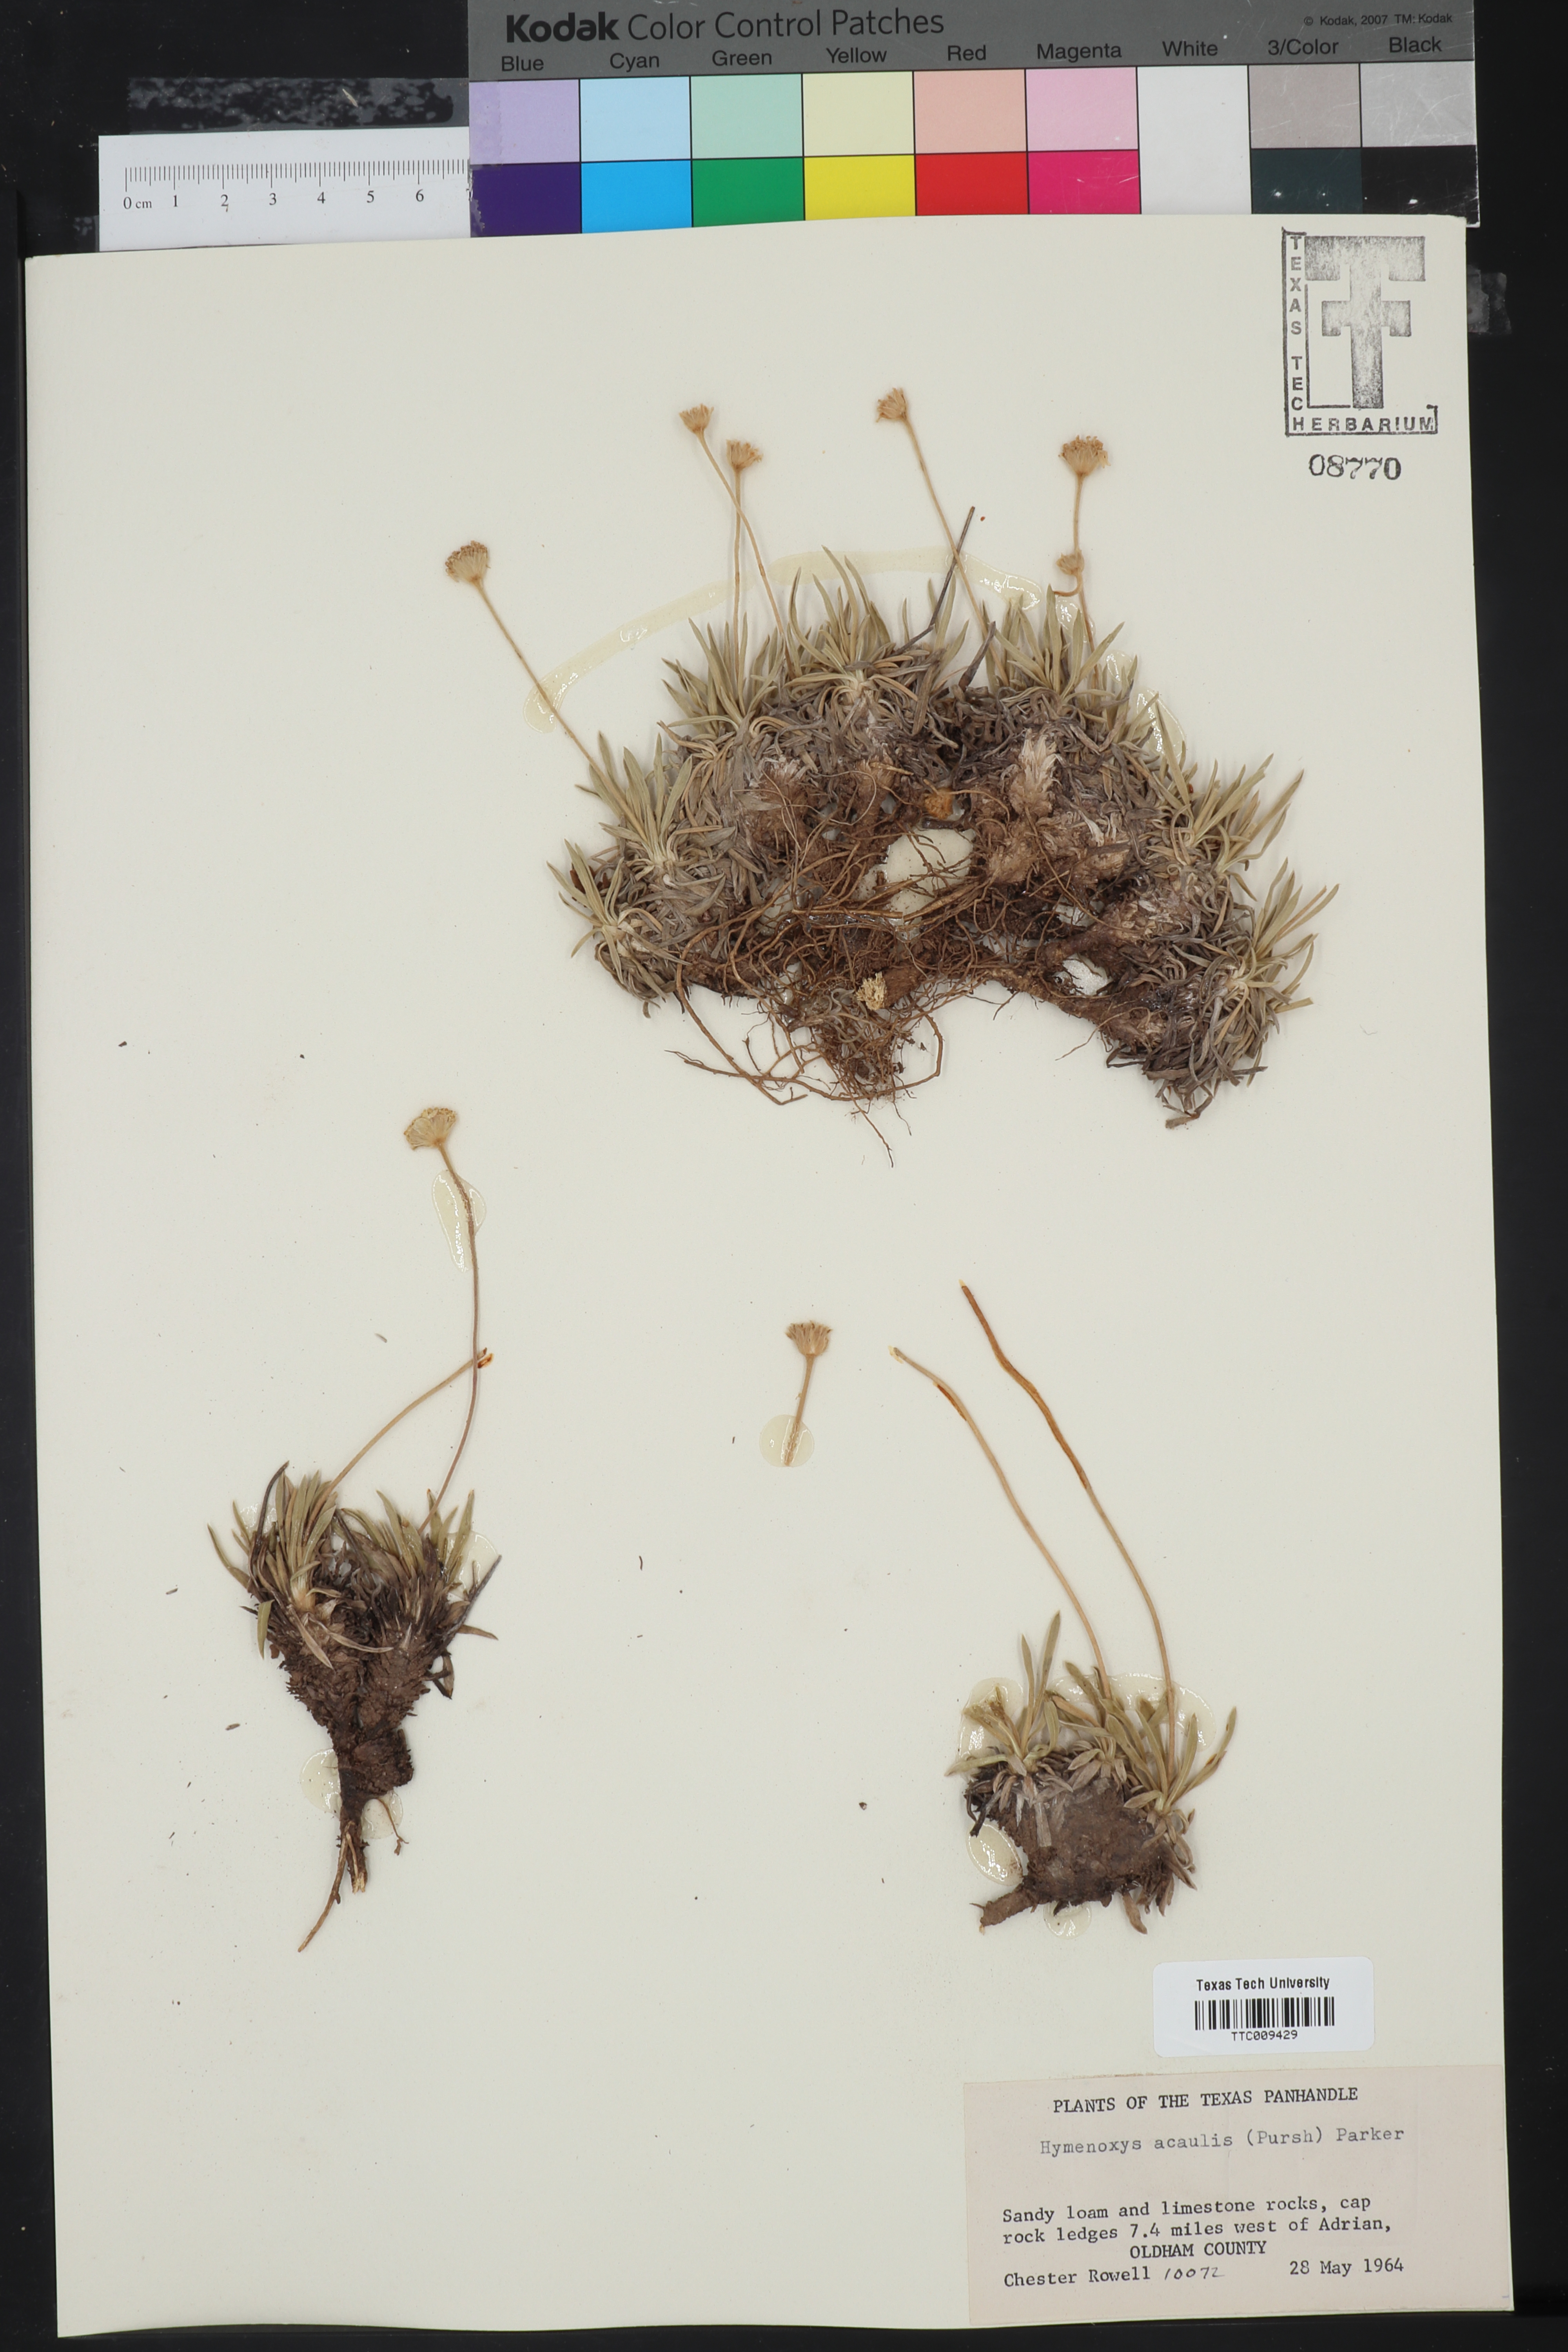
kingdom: Plantae
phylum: Tracheophyta
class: Magnoliopsida
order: Asterales
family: Asteraceae
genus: Tetraneuris
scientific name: Tetraneuris acaulis
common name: Butte marigold
